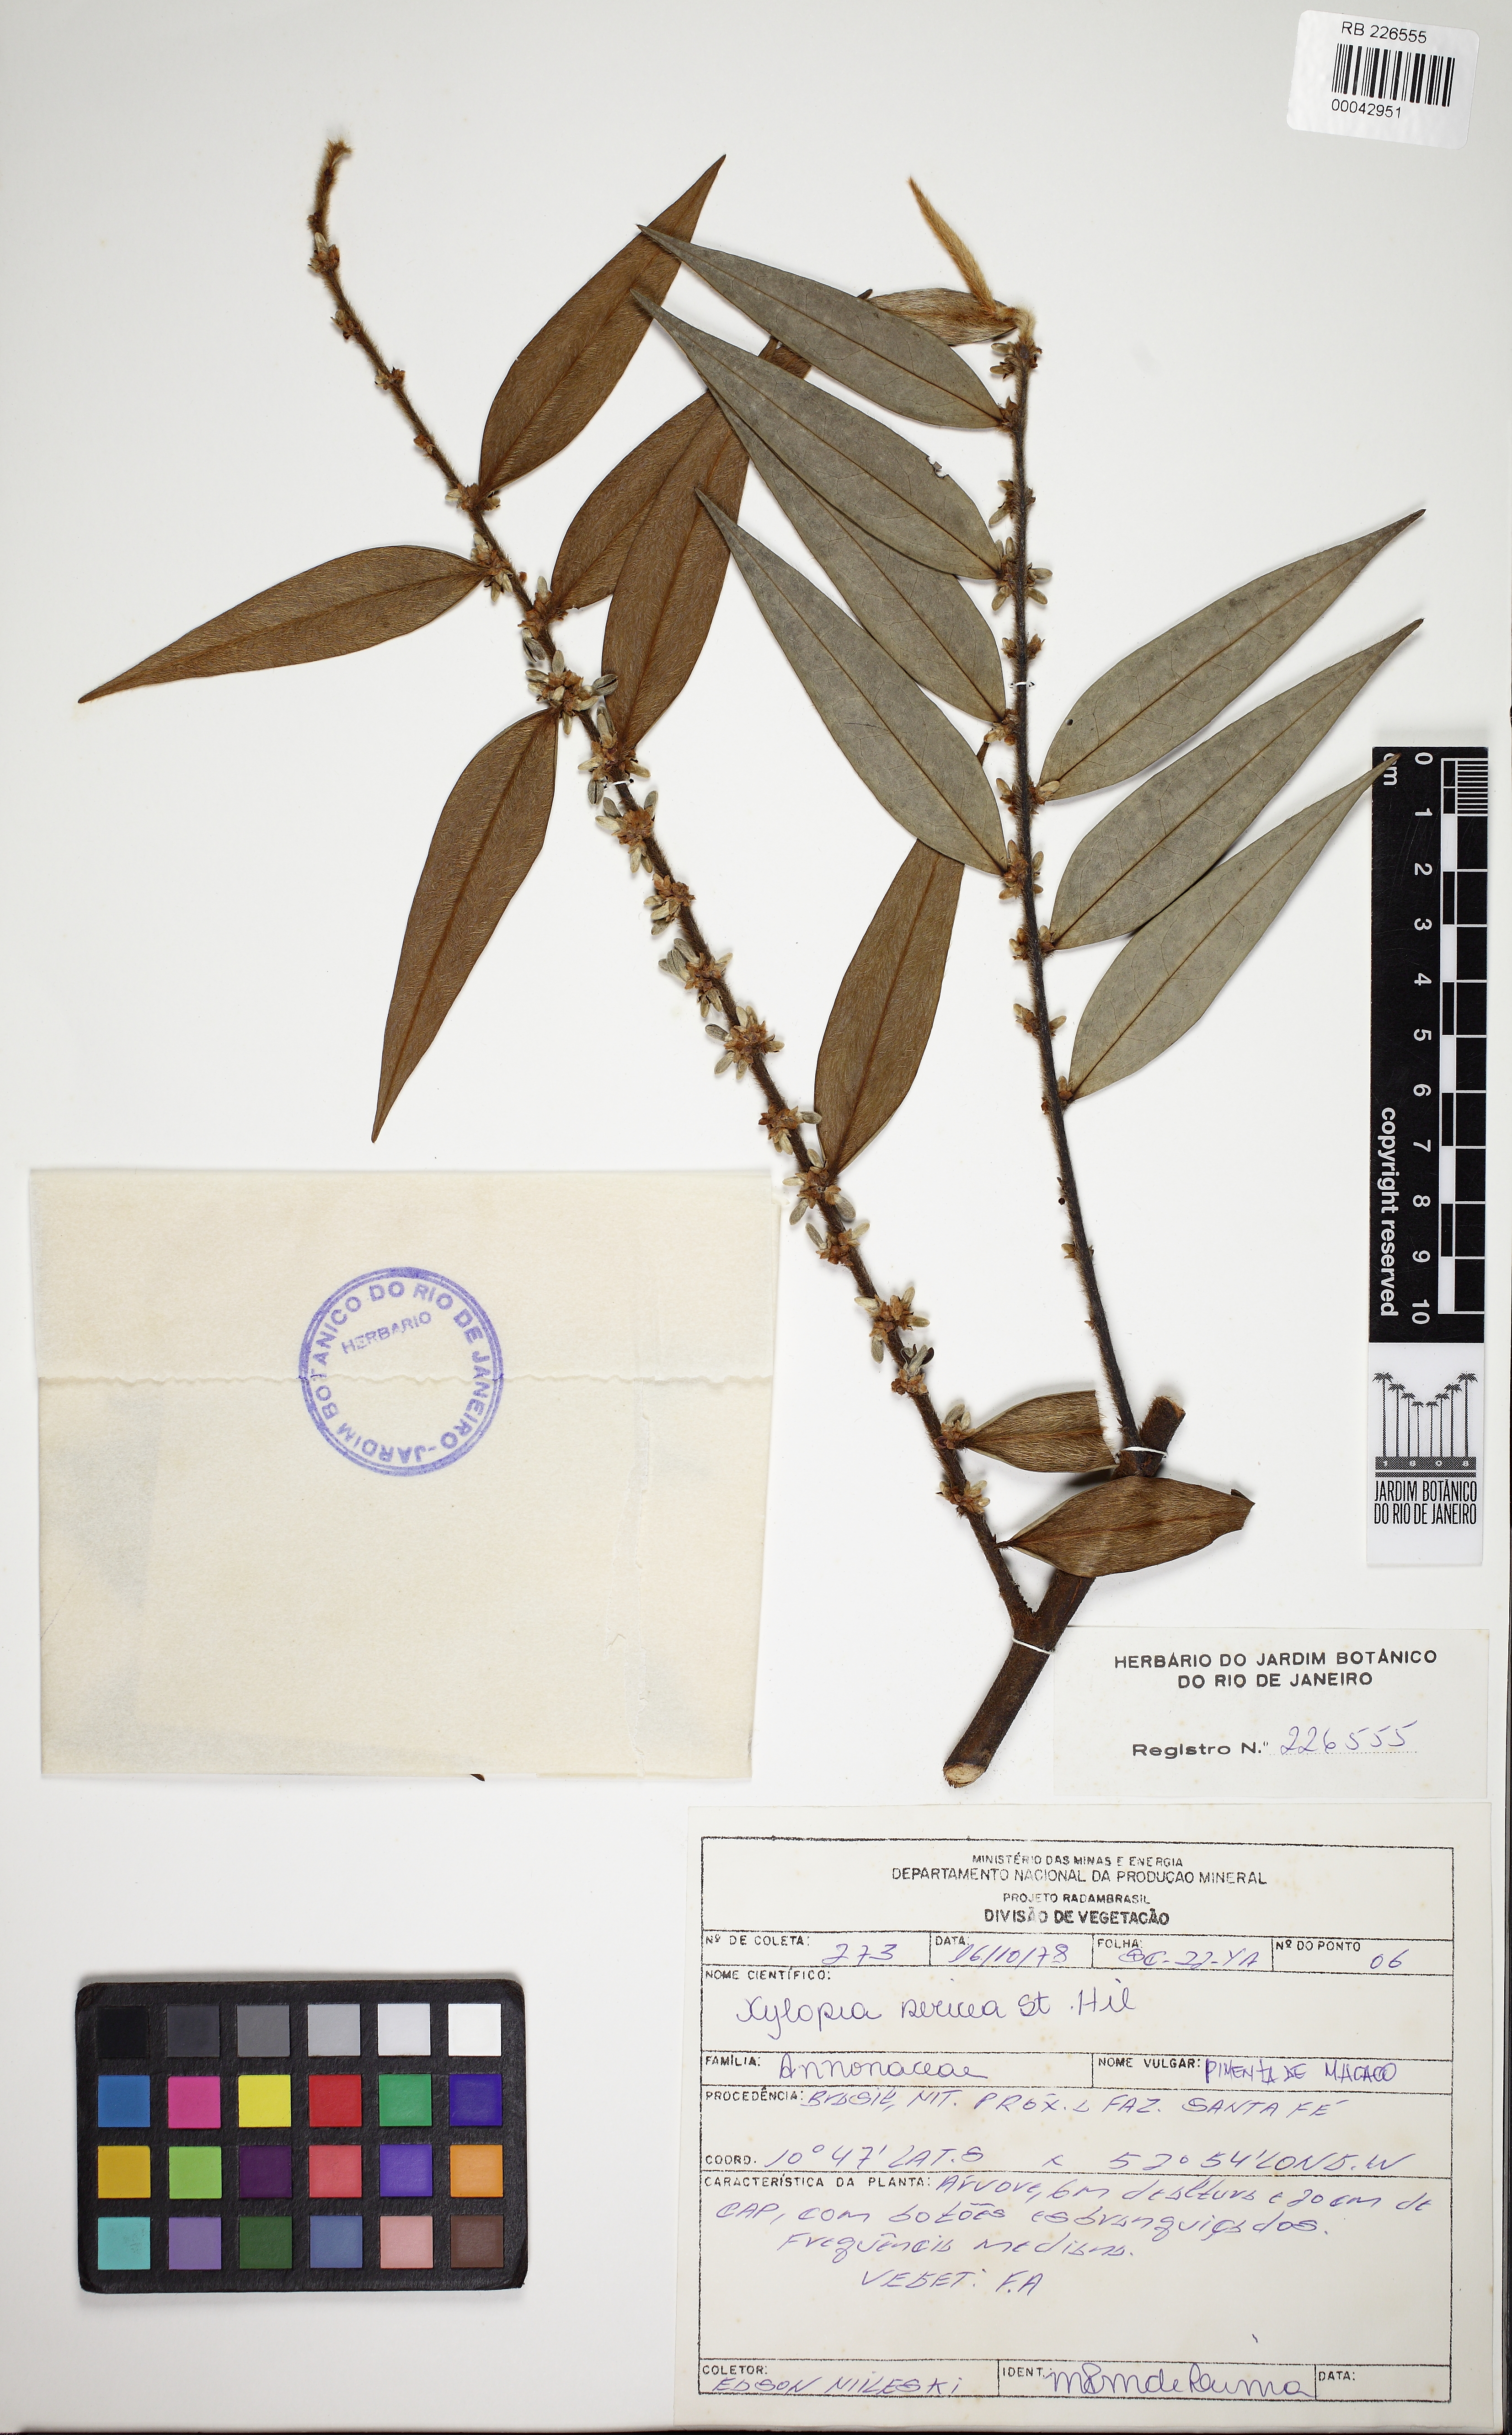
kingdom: Plantae
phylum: Tracheophyta
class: Magnoliopsida
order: Magnoliales
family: Annonaceae
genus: Xylopia
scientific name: Xylopia sericea
